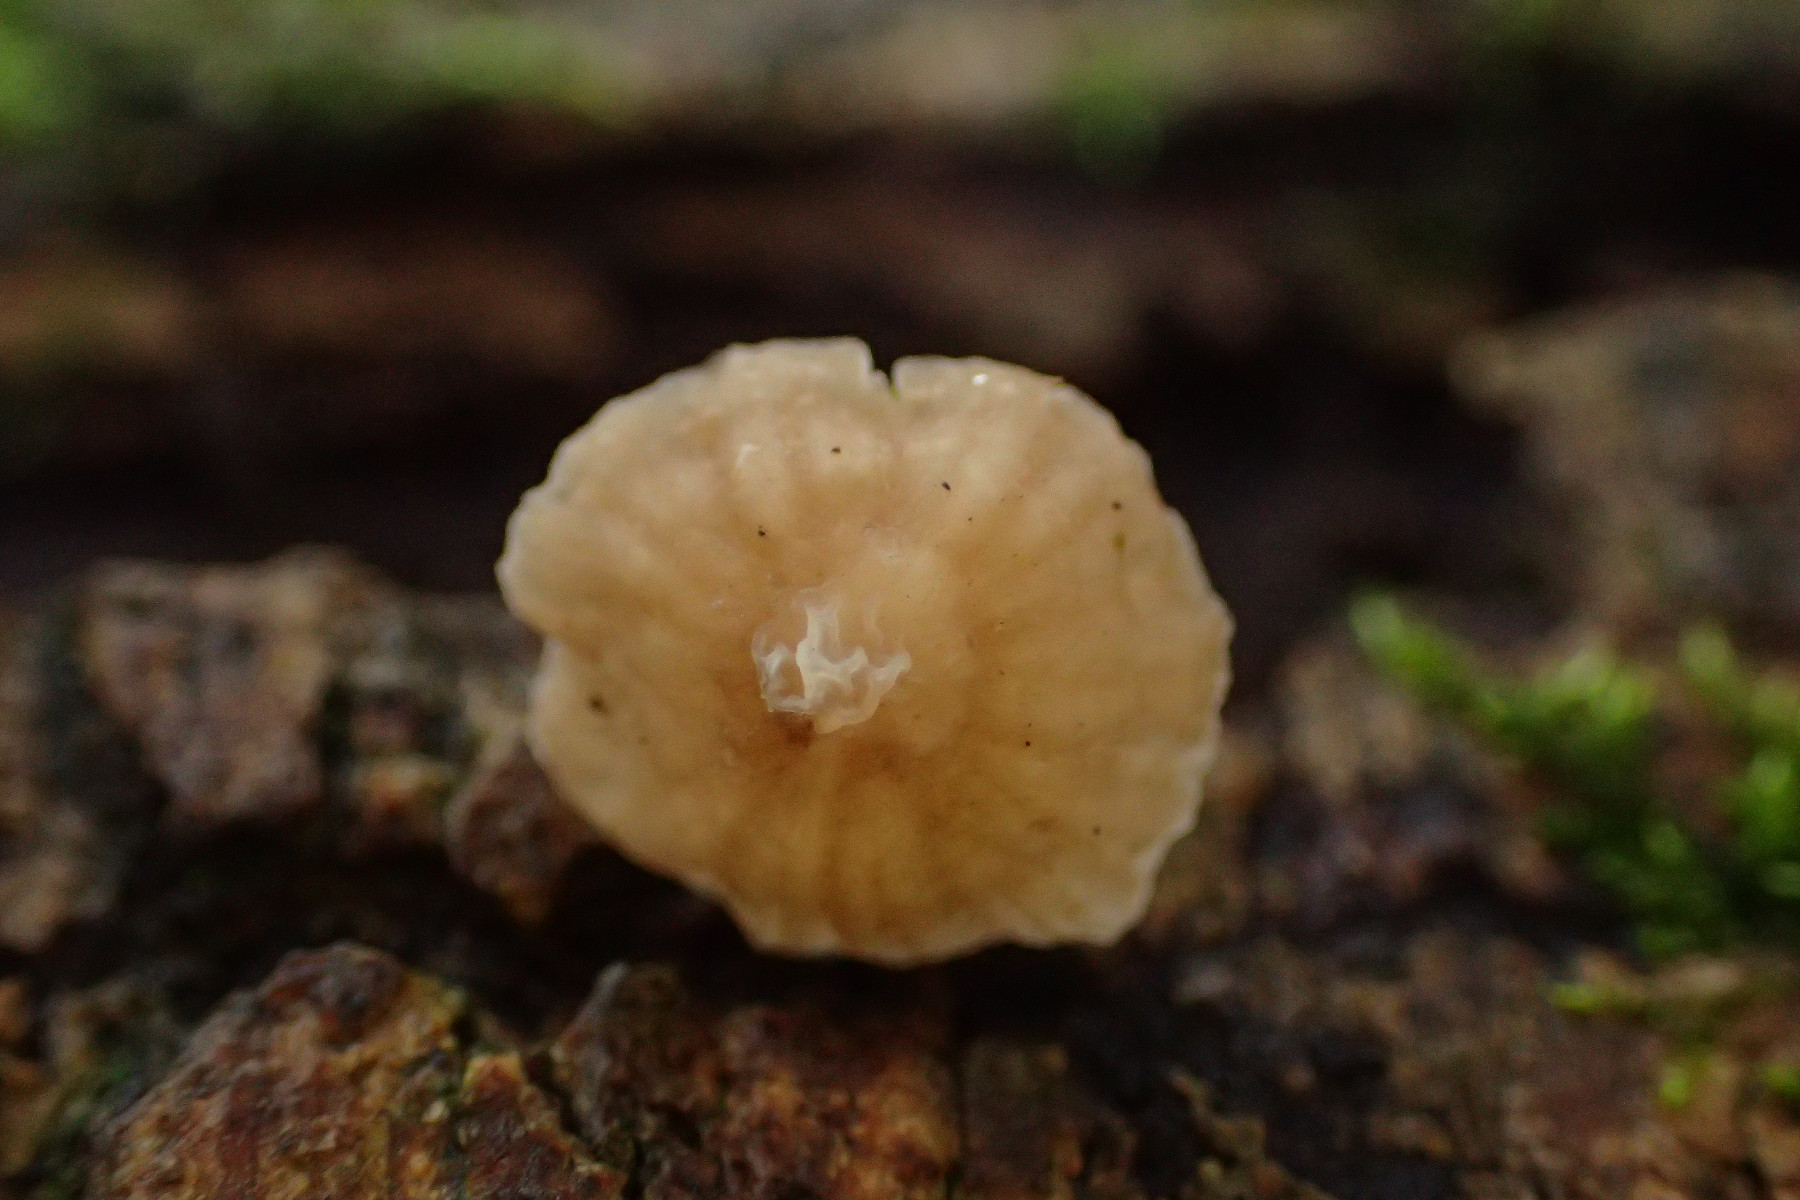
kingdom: Fungi
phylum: Basidiomycota
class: Agaricomycetes
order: Agaricales
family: Porotheleaceae
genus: Phloeomana
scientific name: Phloeomana speirea
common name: kvist-huesvamp
